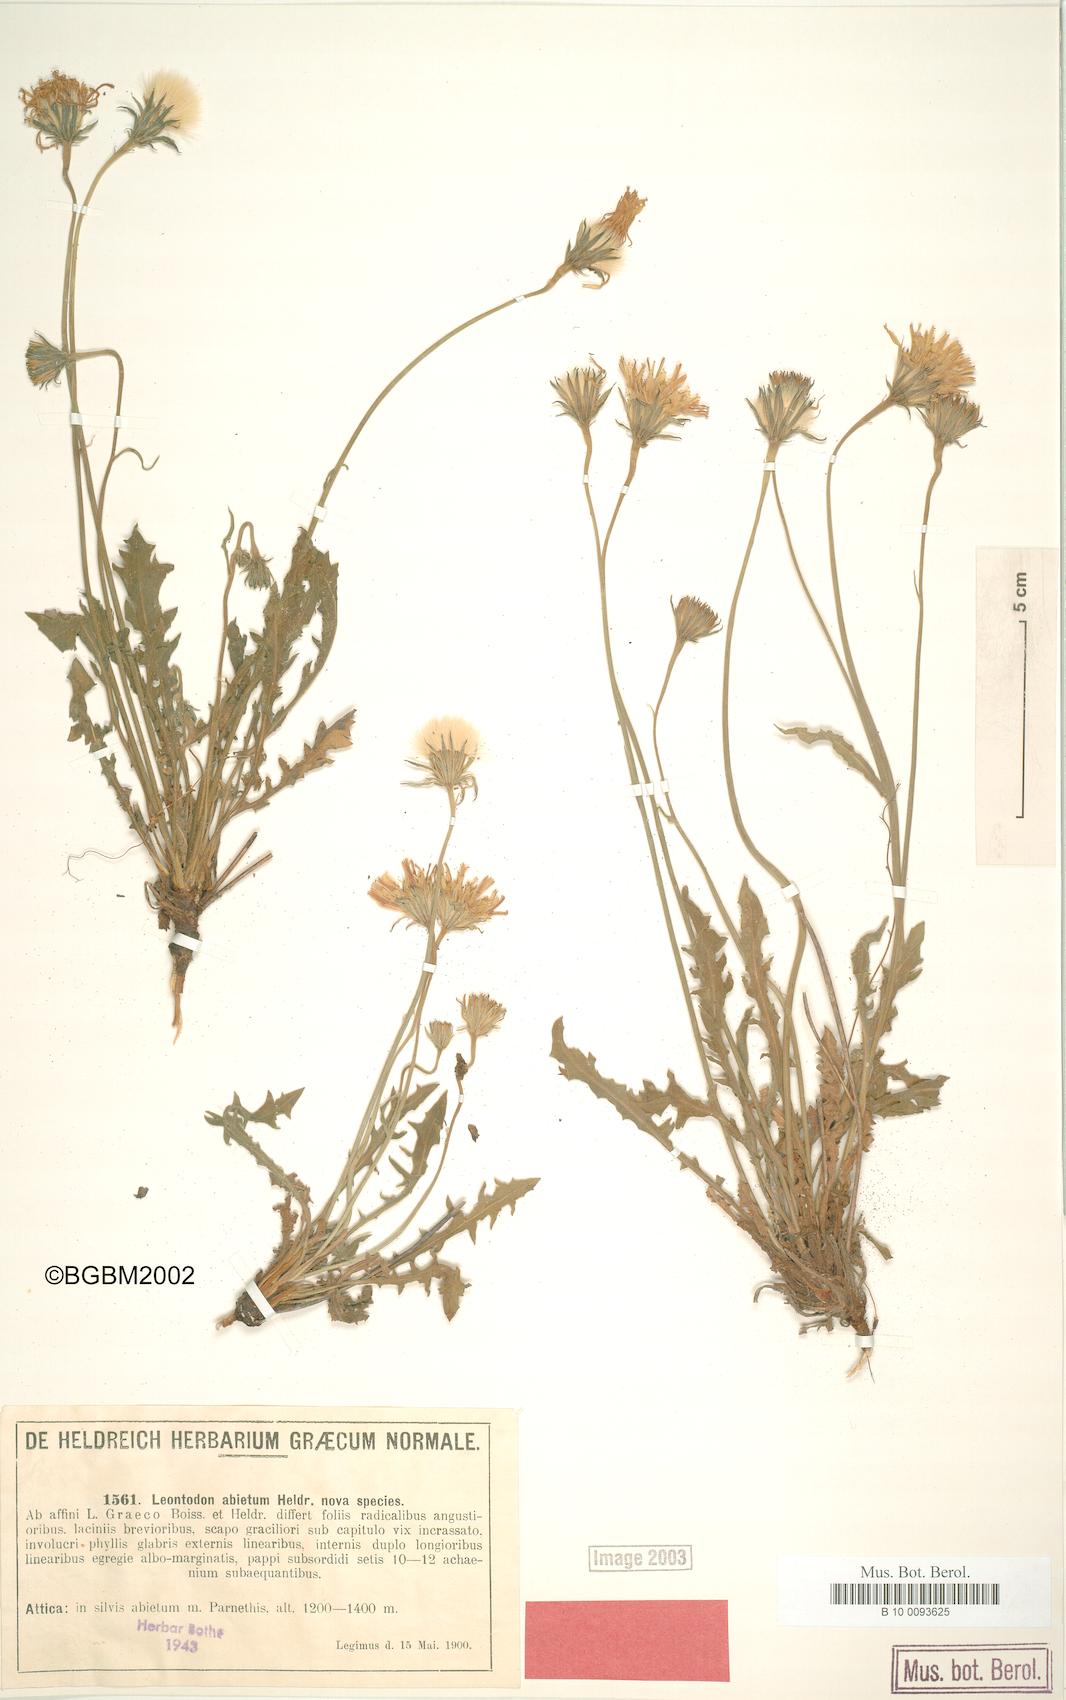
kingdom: Plantae
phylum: Tracheophyta
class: Magnoliopsida
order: Asterales
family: Asteraceae
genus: Leontodon
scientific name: Leontodon graecus
